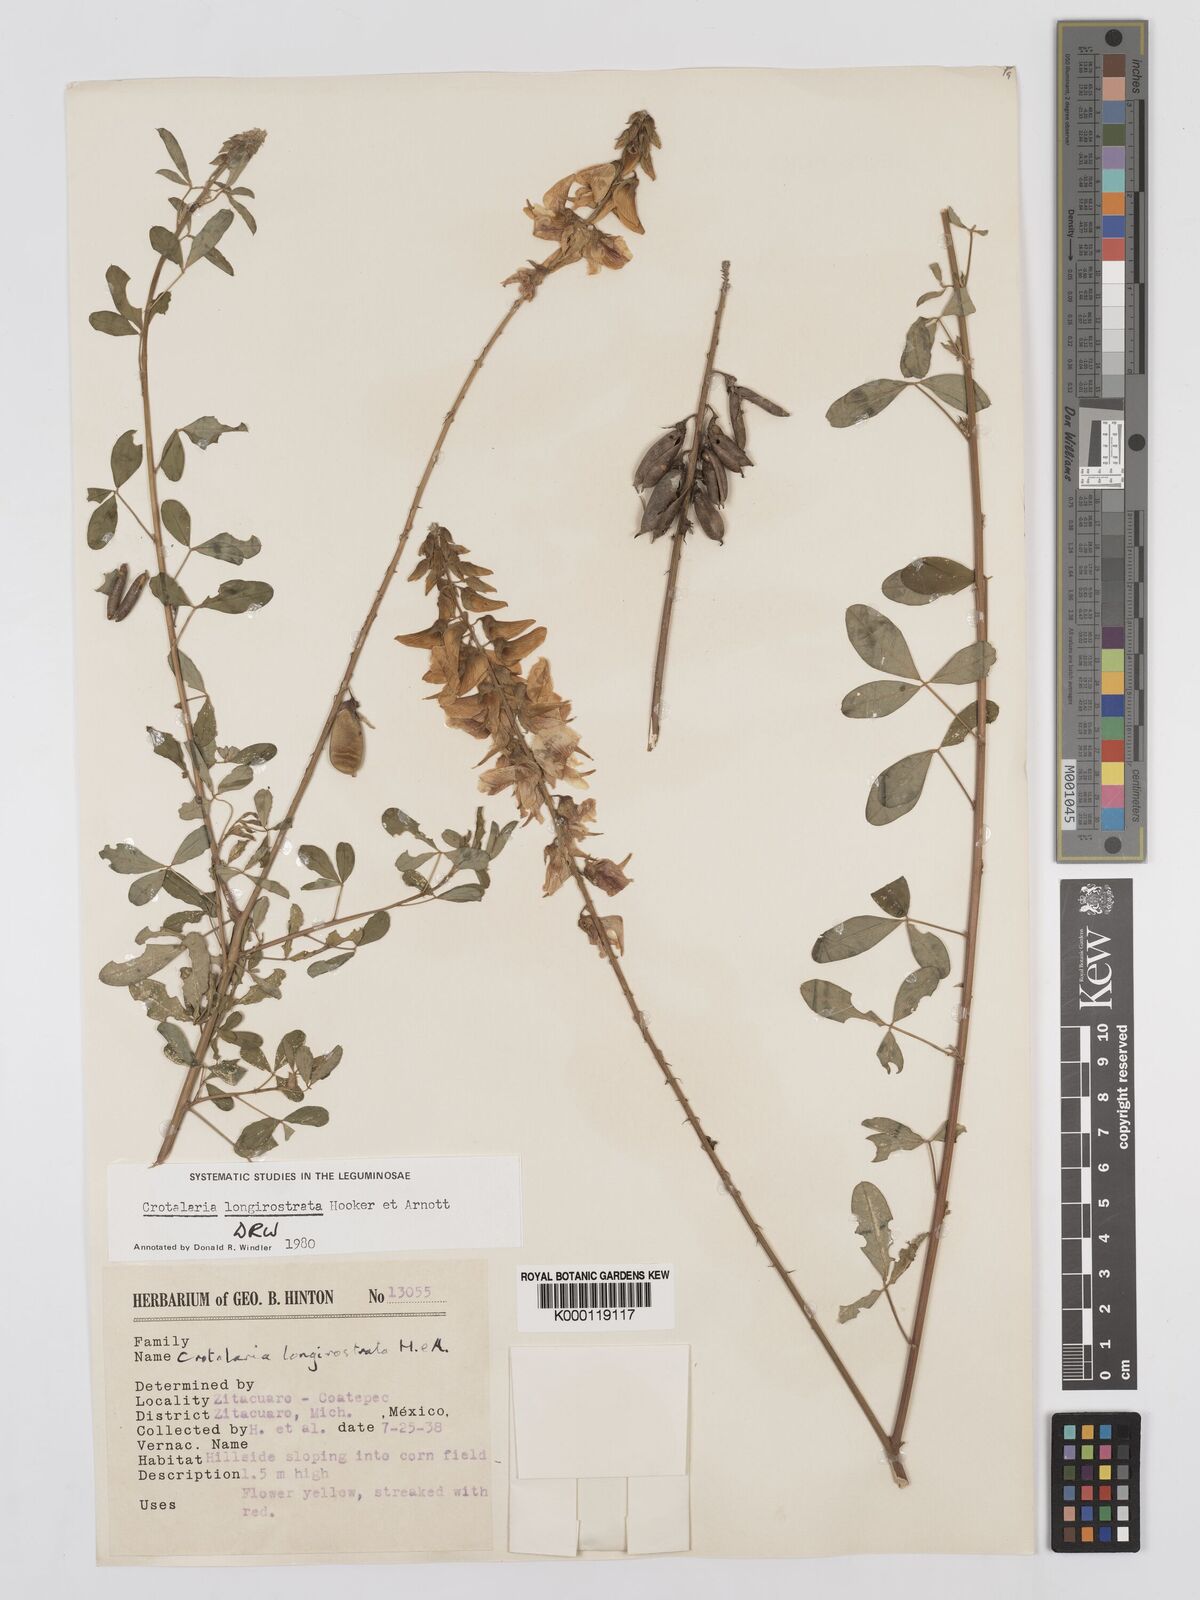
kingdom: Plantae
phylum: Tracheophyta
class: Magnoliopsida
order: Fabales
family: Fabaceae
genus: Crotalaria
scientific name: Crotalaria longirostrata
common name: Longbeak rattlebox
